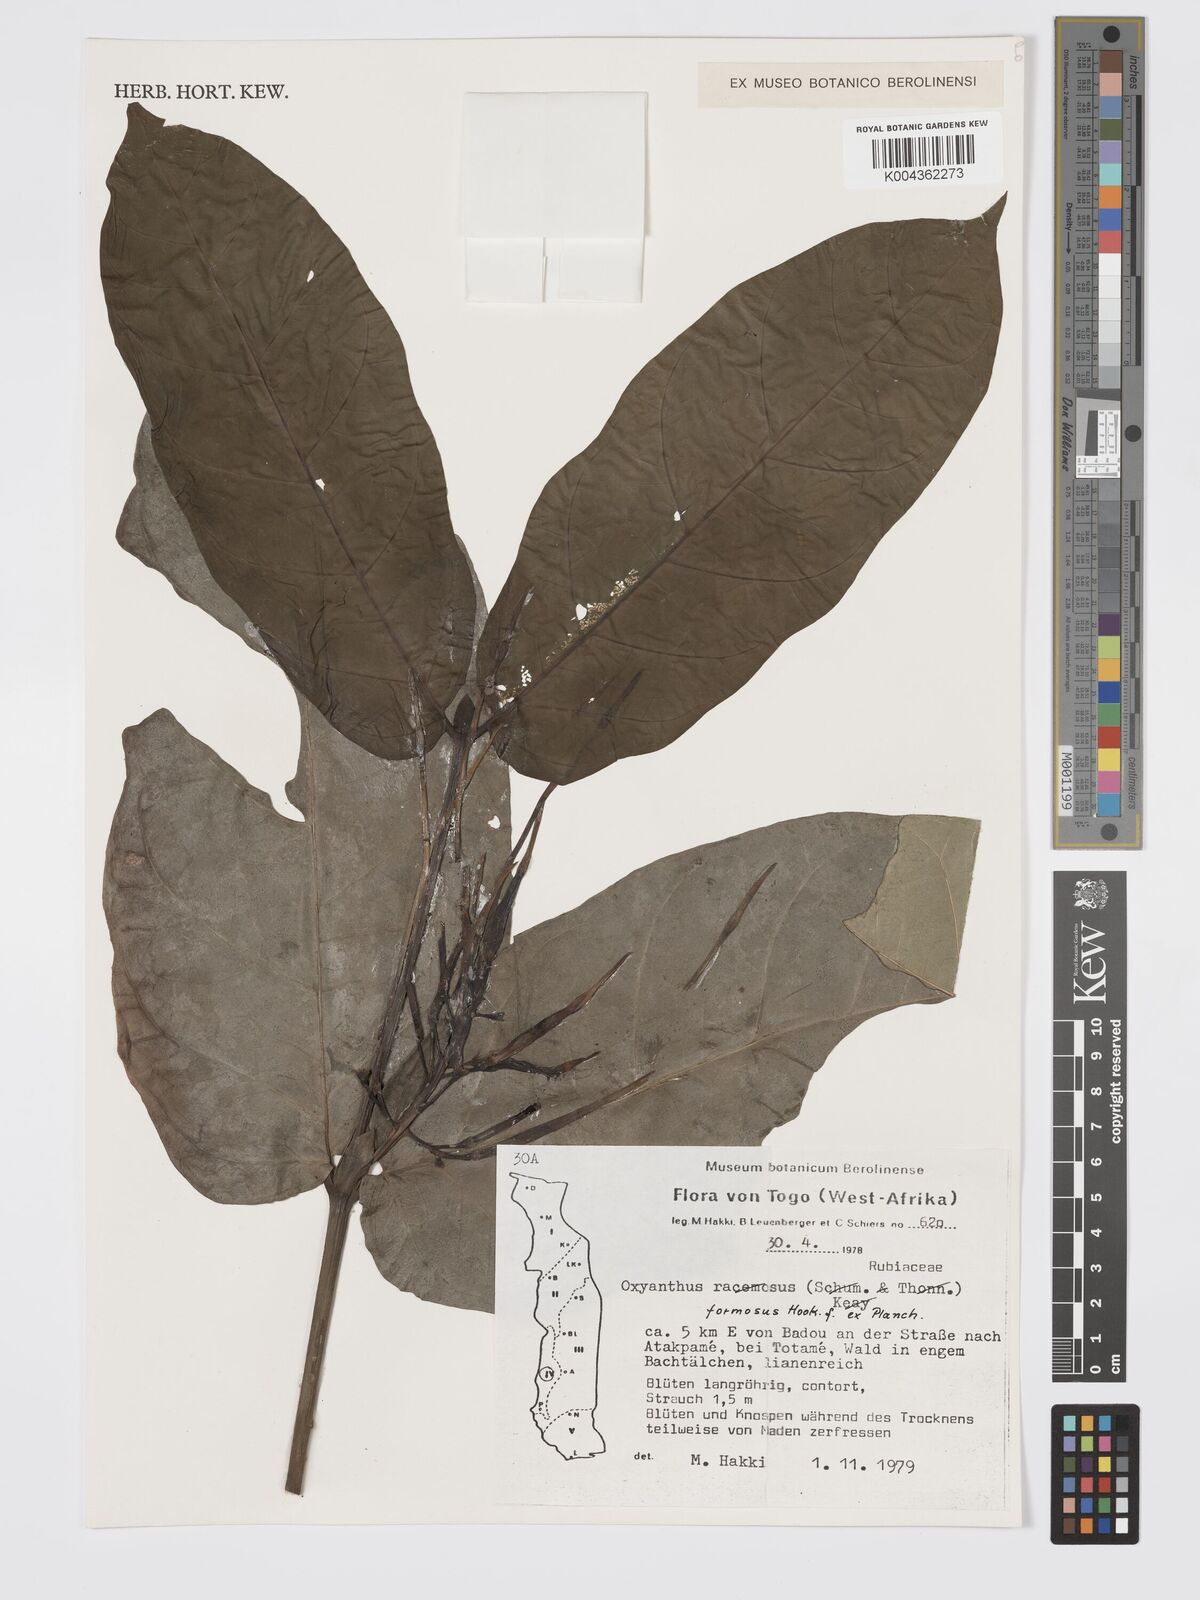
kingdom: Plantae
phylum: Tracheophyta
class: Magnoliopsida
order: Gentianales
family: Rubiaceae
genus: Oxyanthus
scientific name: Oxyanthus formosus
